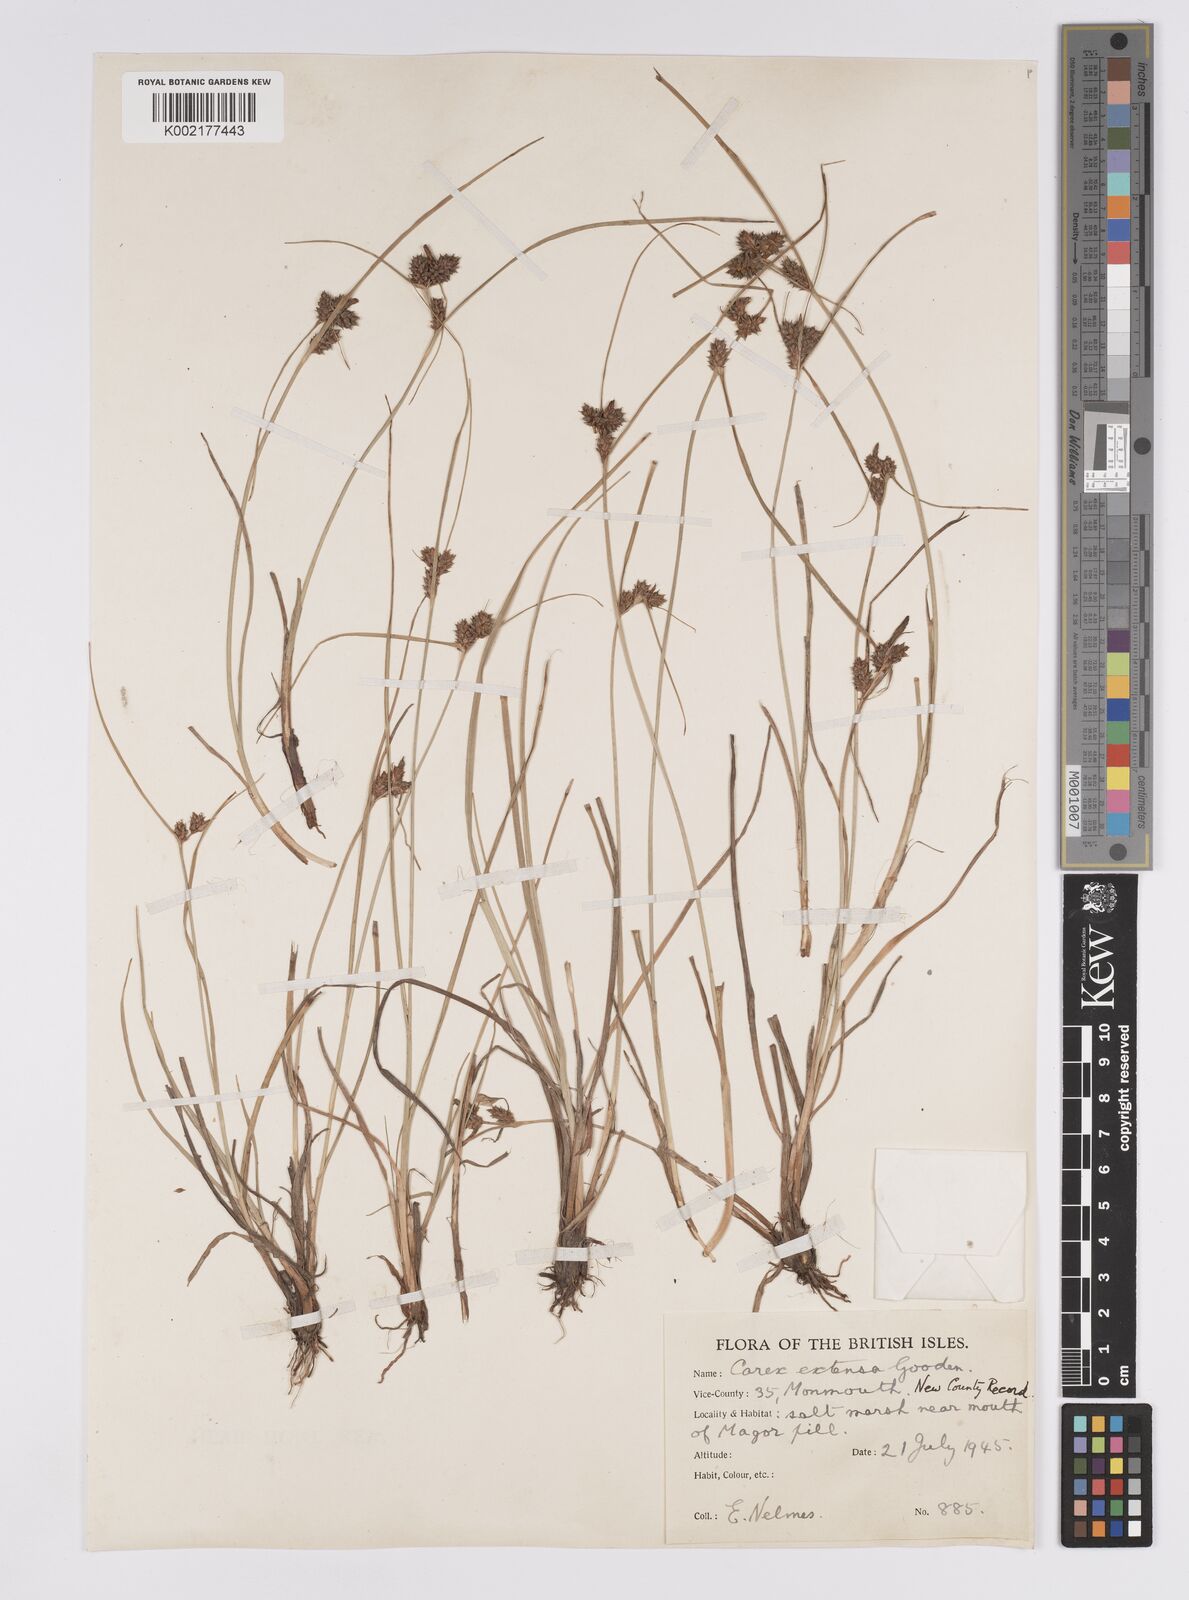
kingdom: Plantae
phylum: Tracheophyta
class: Liliopsida
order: Poales
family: Cyperaceae
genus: Carex
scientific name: Carex extensa
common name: Long-bracted sedge
